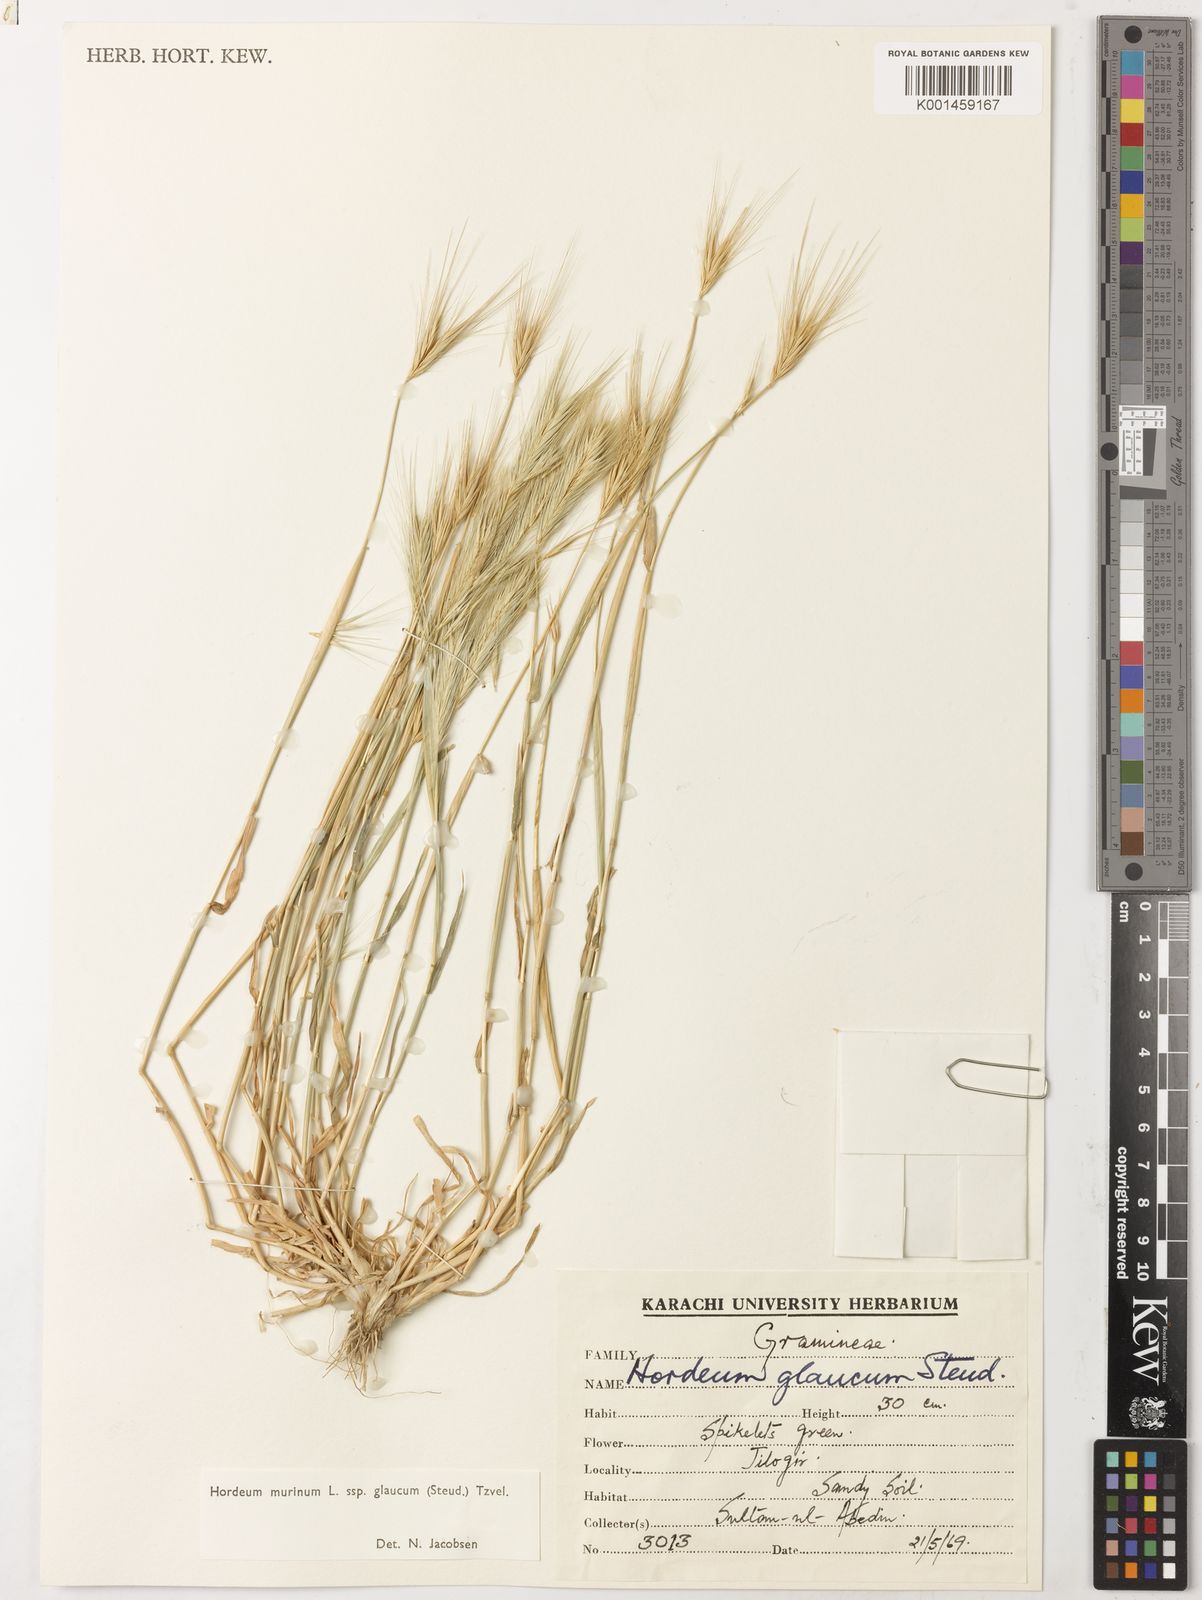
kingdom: Plantae
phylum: Tracheophyta
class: Liliopsida
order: Poales
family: Poaceae
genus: Hordeum
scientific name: Hordeum murinum
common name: Wall barley
